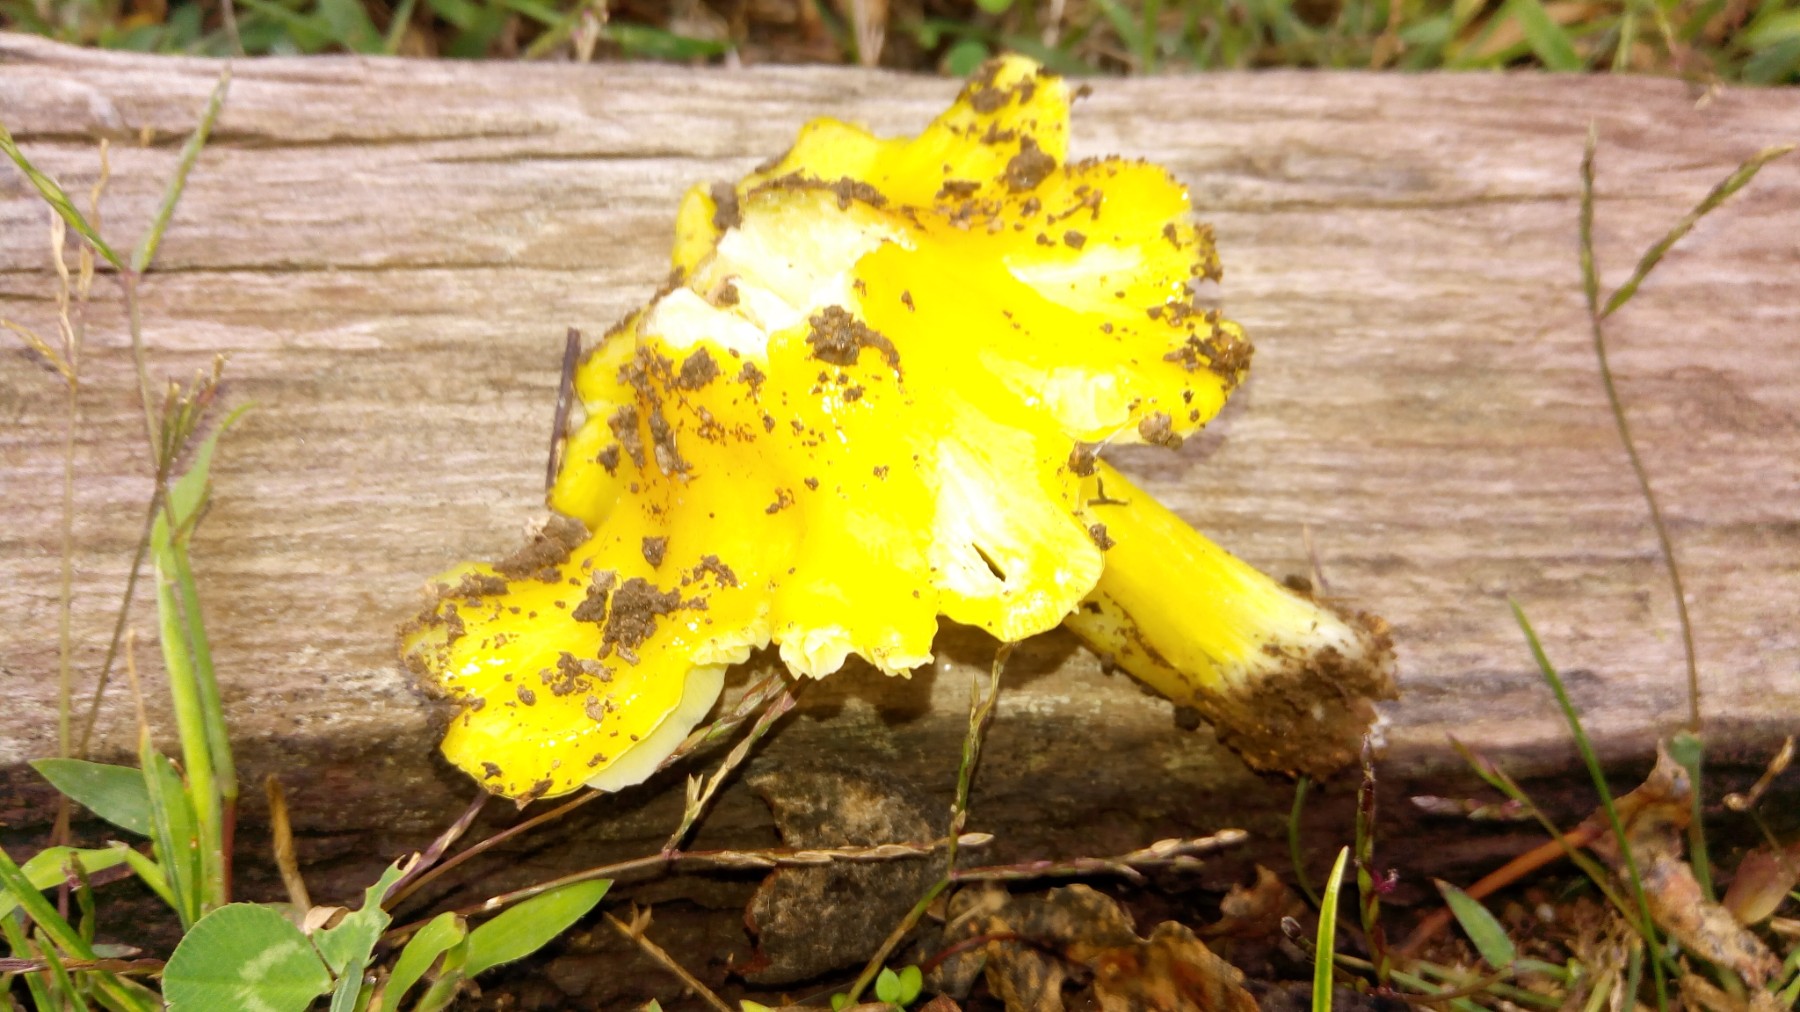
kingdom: Fungi
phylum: Basidiomycota
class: Agaricomycetes
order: Agaricales
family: Hygrophoraceae
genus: Hygrocybe
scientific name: Hygrocybe acutoconica
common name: spidspuklet vokshat
